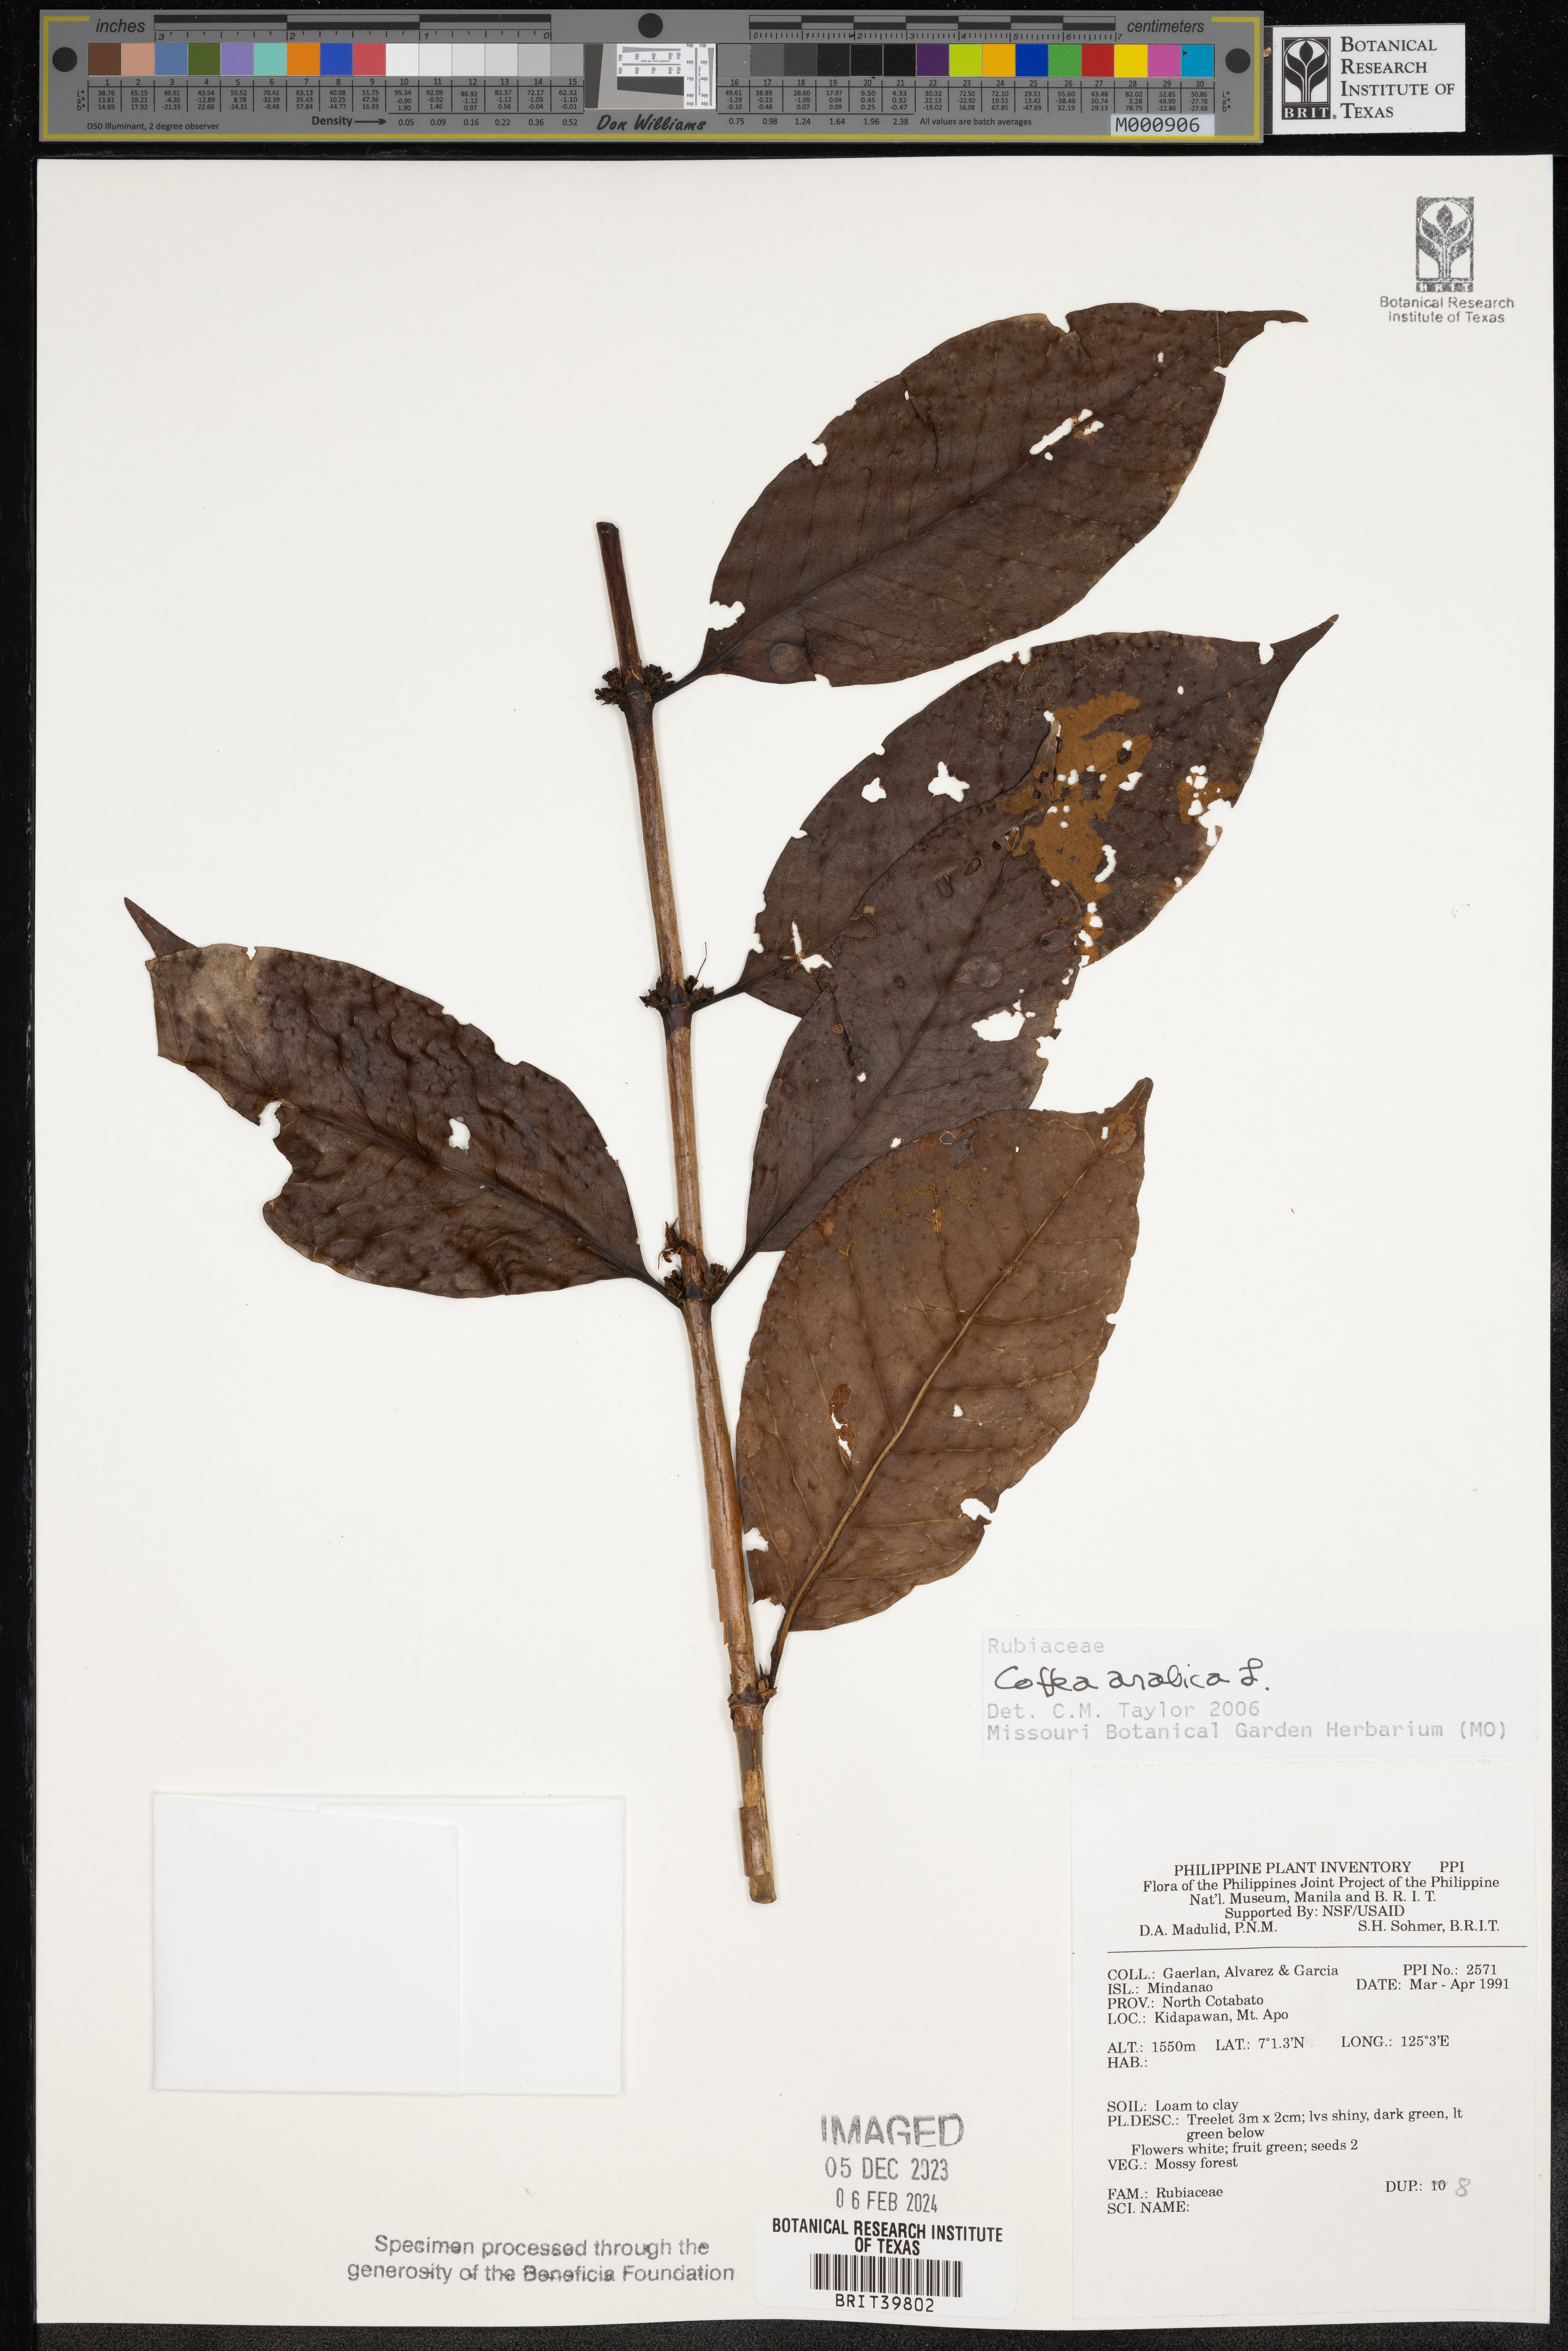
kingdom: Plantae
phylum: Tracheophyta
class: Magnoliopsida
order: Gentianales
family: Rubiaceae
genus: Coffea
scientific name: Coffea arabica
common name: Coffee
